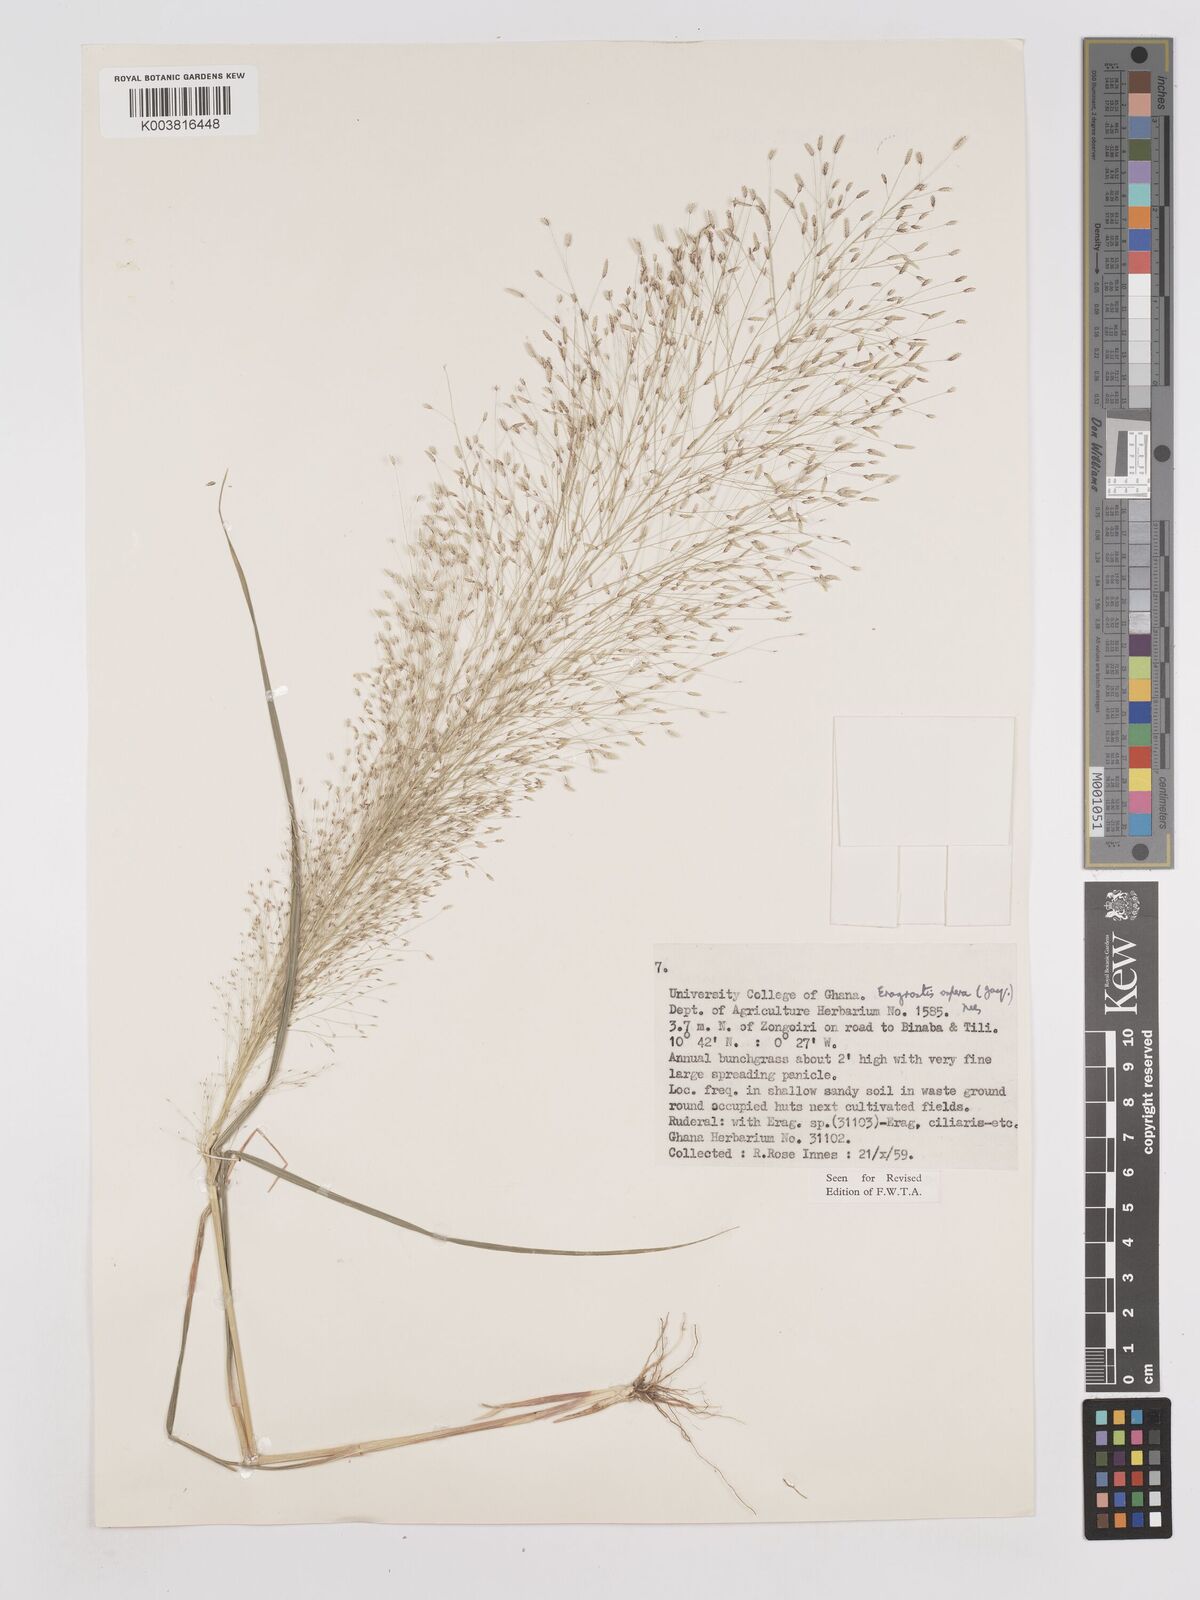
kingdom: Plantae
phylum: Tracheophyta
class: Liliopsida
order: Poales
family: Poaceae
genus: Eragrostis
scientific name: Eragrostis aspera
